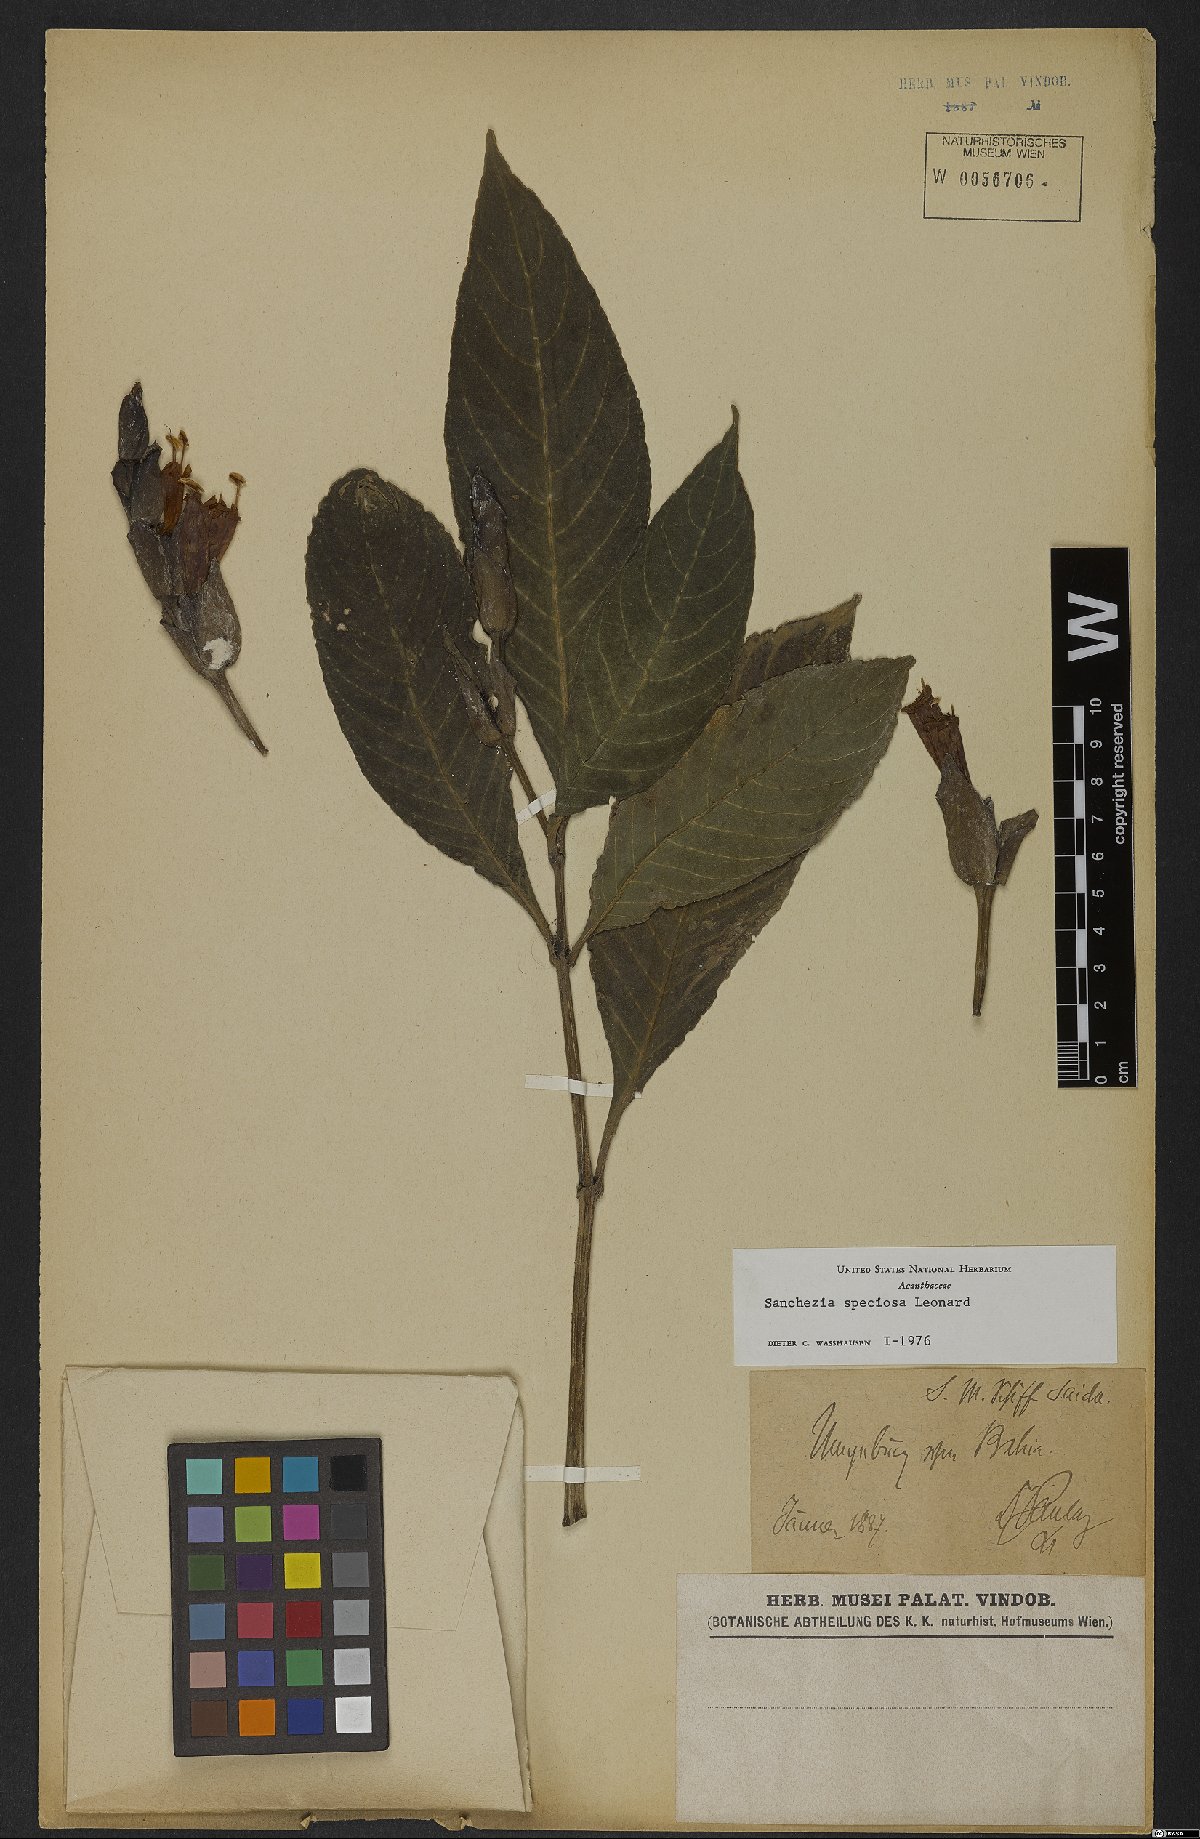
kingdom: Plantae
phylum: Tracheophyta
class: Magnoliopsida
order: Lamiales
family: Acanthaceae
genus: Sanchezia
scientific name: Sanchezia speciosa
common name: Shrubby whitevein
